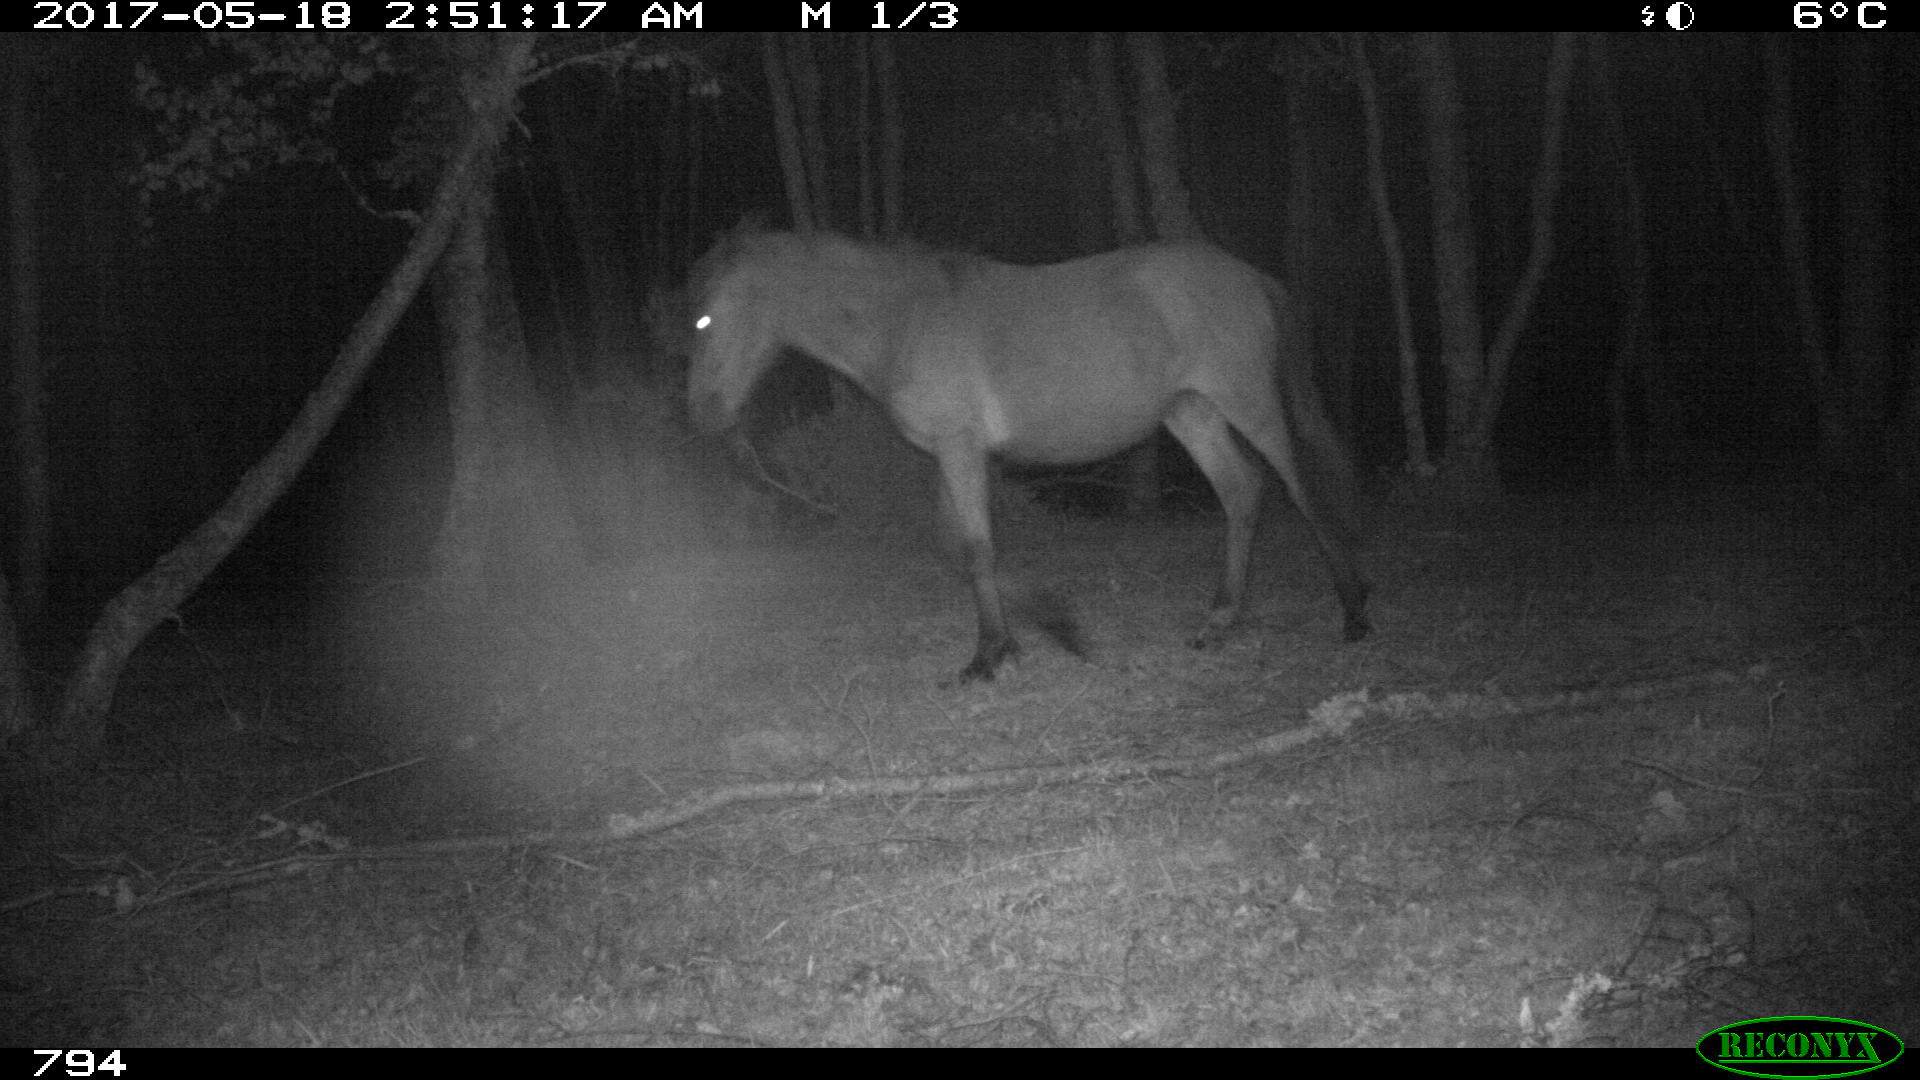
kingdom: Animalia
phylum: Chordata
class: Mammalia
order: Perissodactyla
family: Equidae
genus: Equus
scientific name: Equus caballus
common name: Horse
